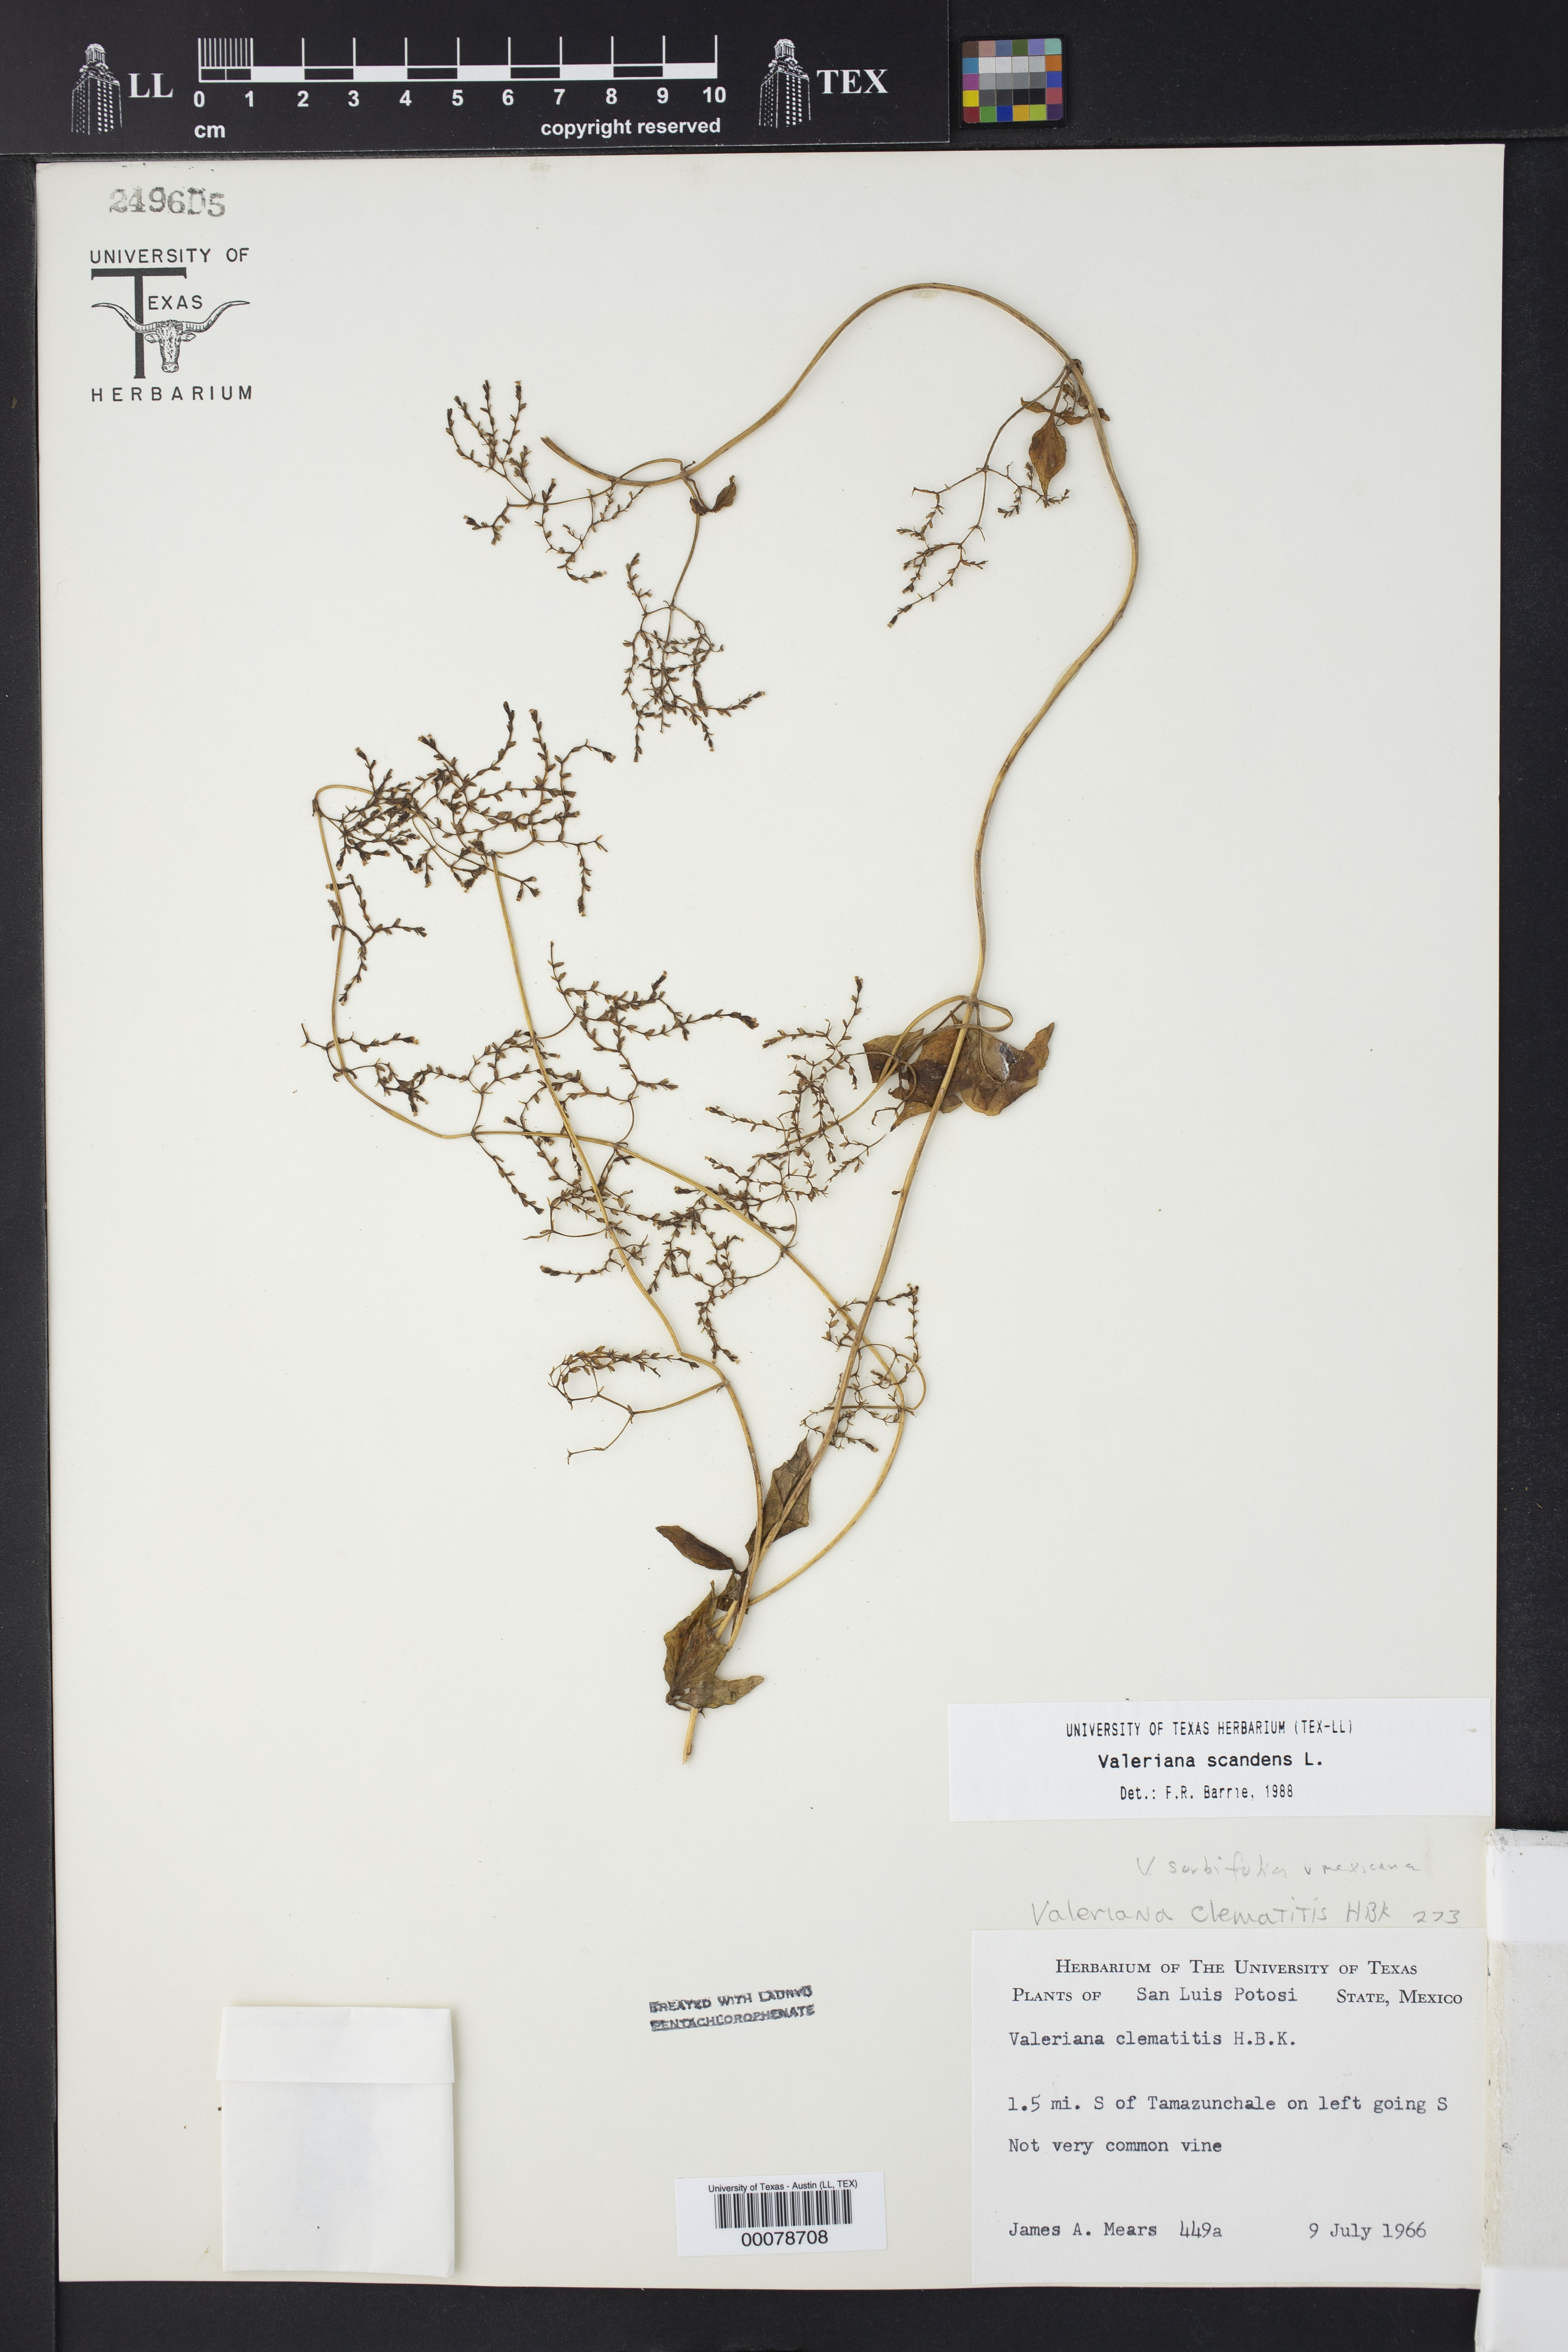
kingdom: Plantae
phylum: Tracheophyta
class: Magnoliopsida
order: Dipsacales
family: Caprifoliaceae
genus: Valeriana
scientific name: Valeriana scandens
